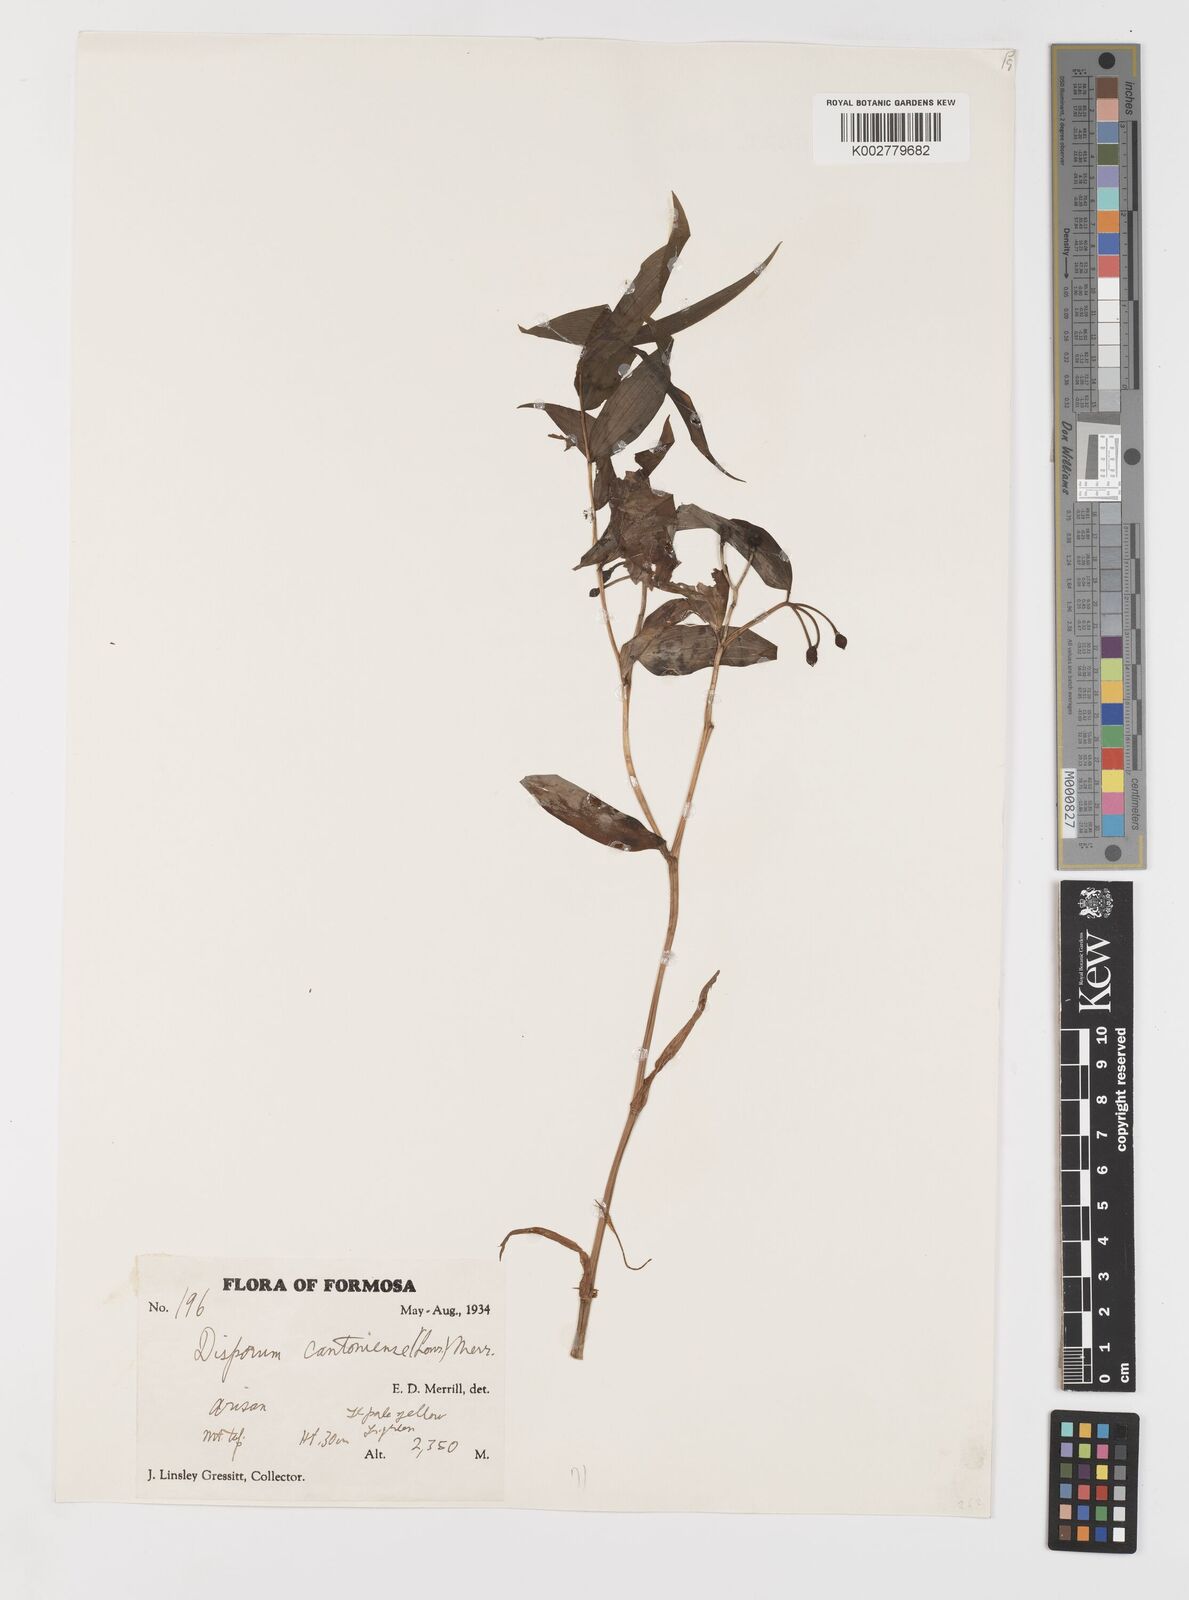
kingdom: Plantae
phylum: Tracheophyta
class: Liliopsida
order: Liliales
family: Colchicaceae
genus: Disporum
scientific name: Disporum cantoniense
